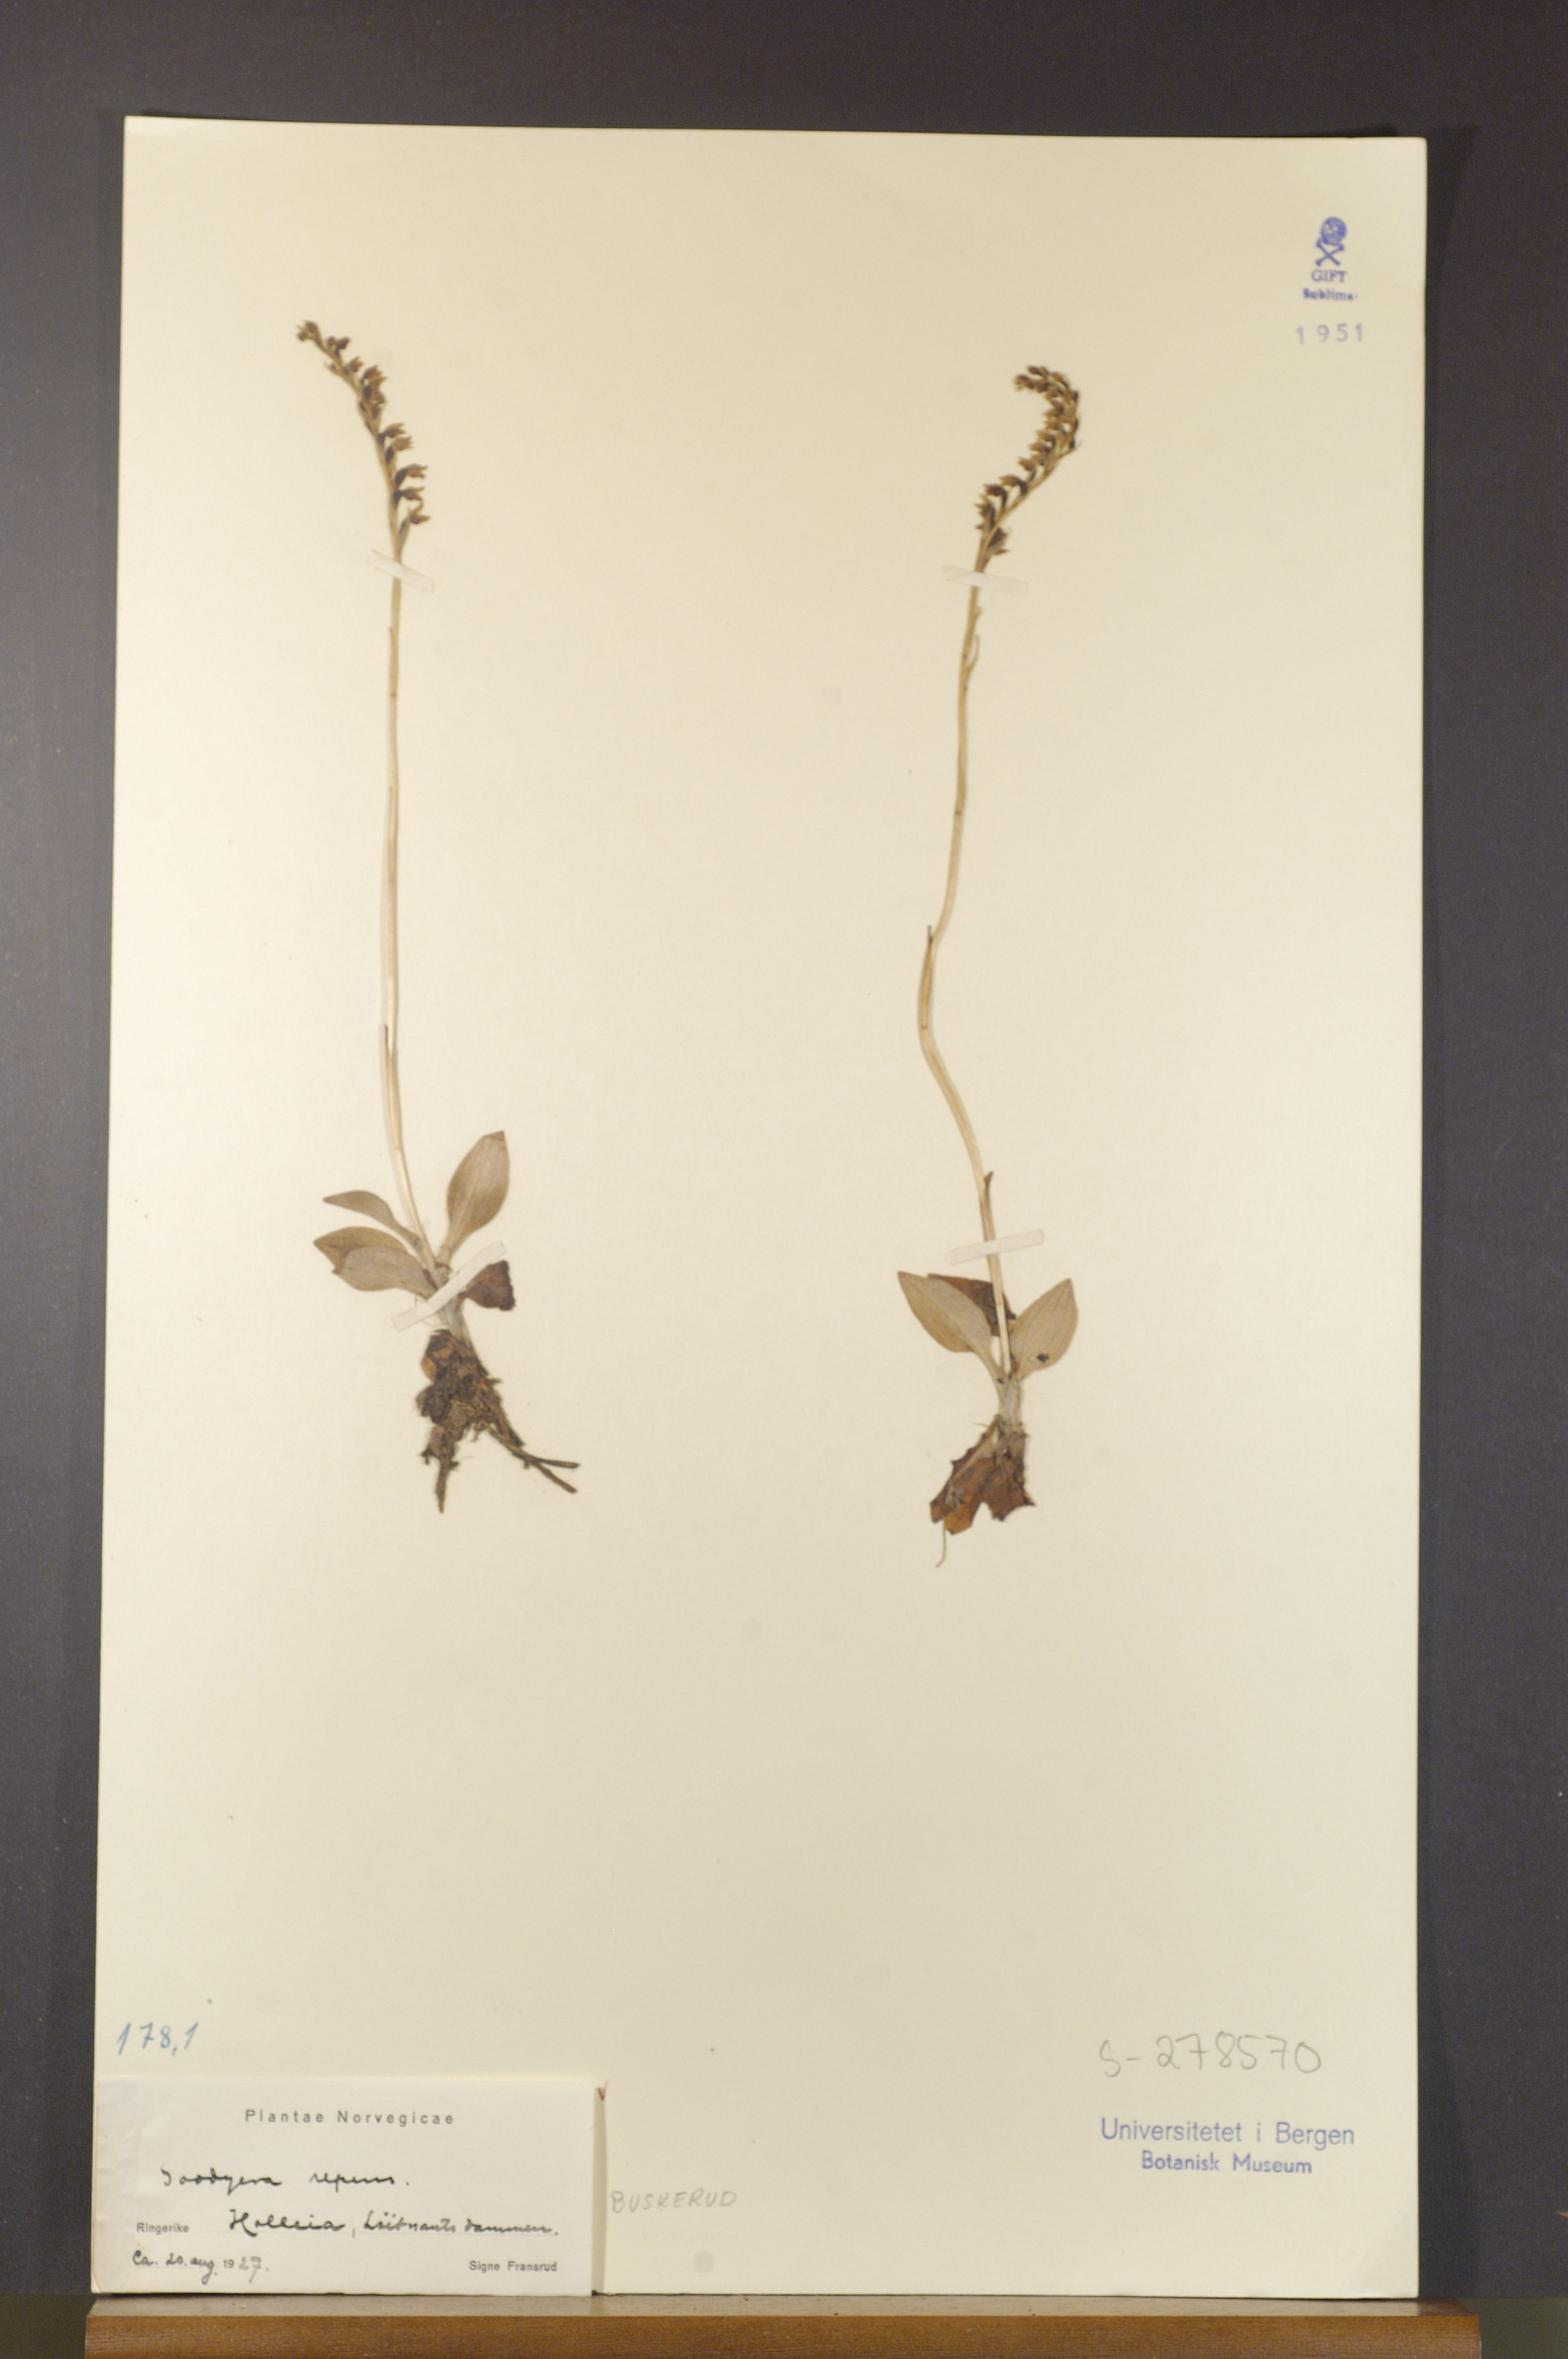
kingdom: Plantae
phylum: Tracheophyta
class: Liliopsida
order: Asparagales
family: Orchidaceae
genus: Goodyera
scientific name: Goodyera repens
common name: Creeping lady's-tresses
